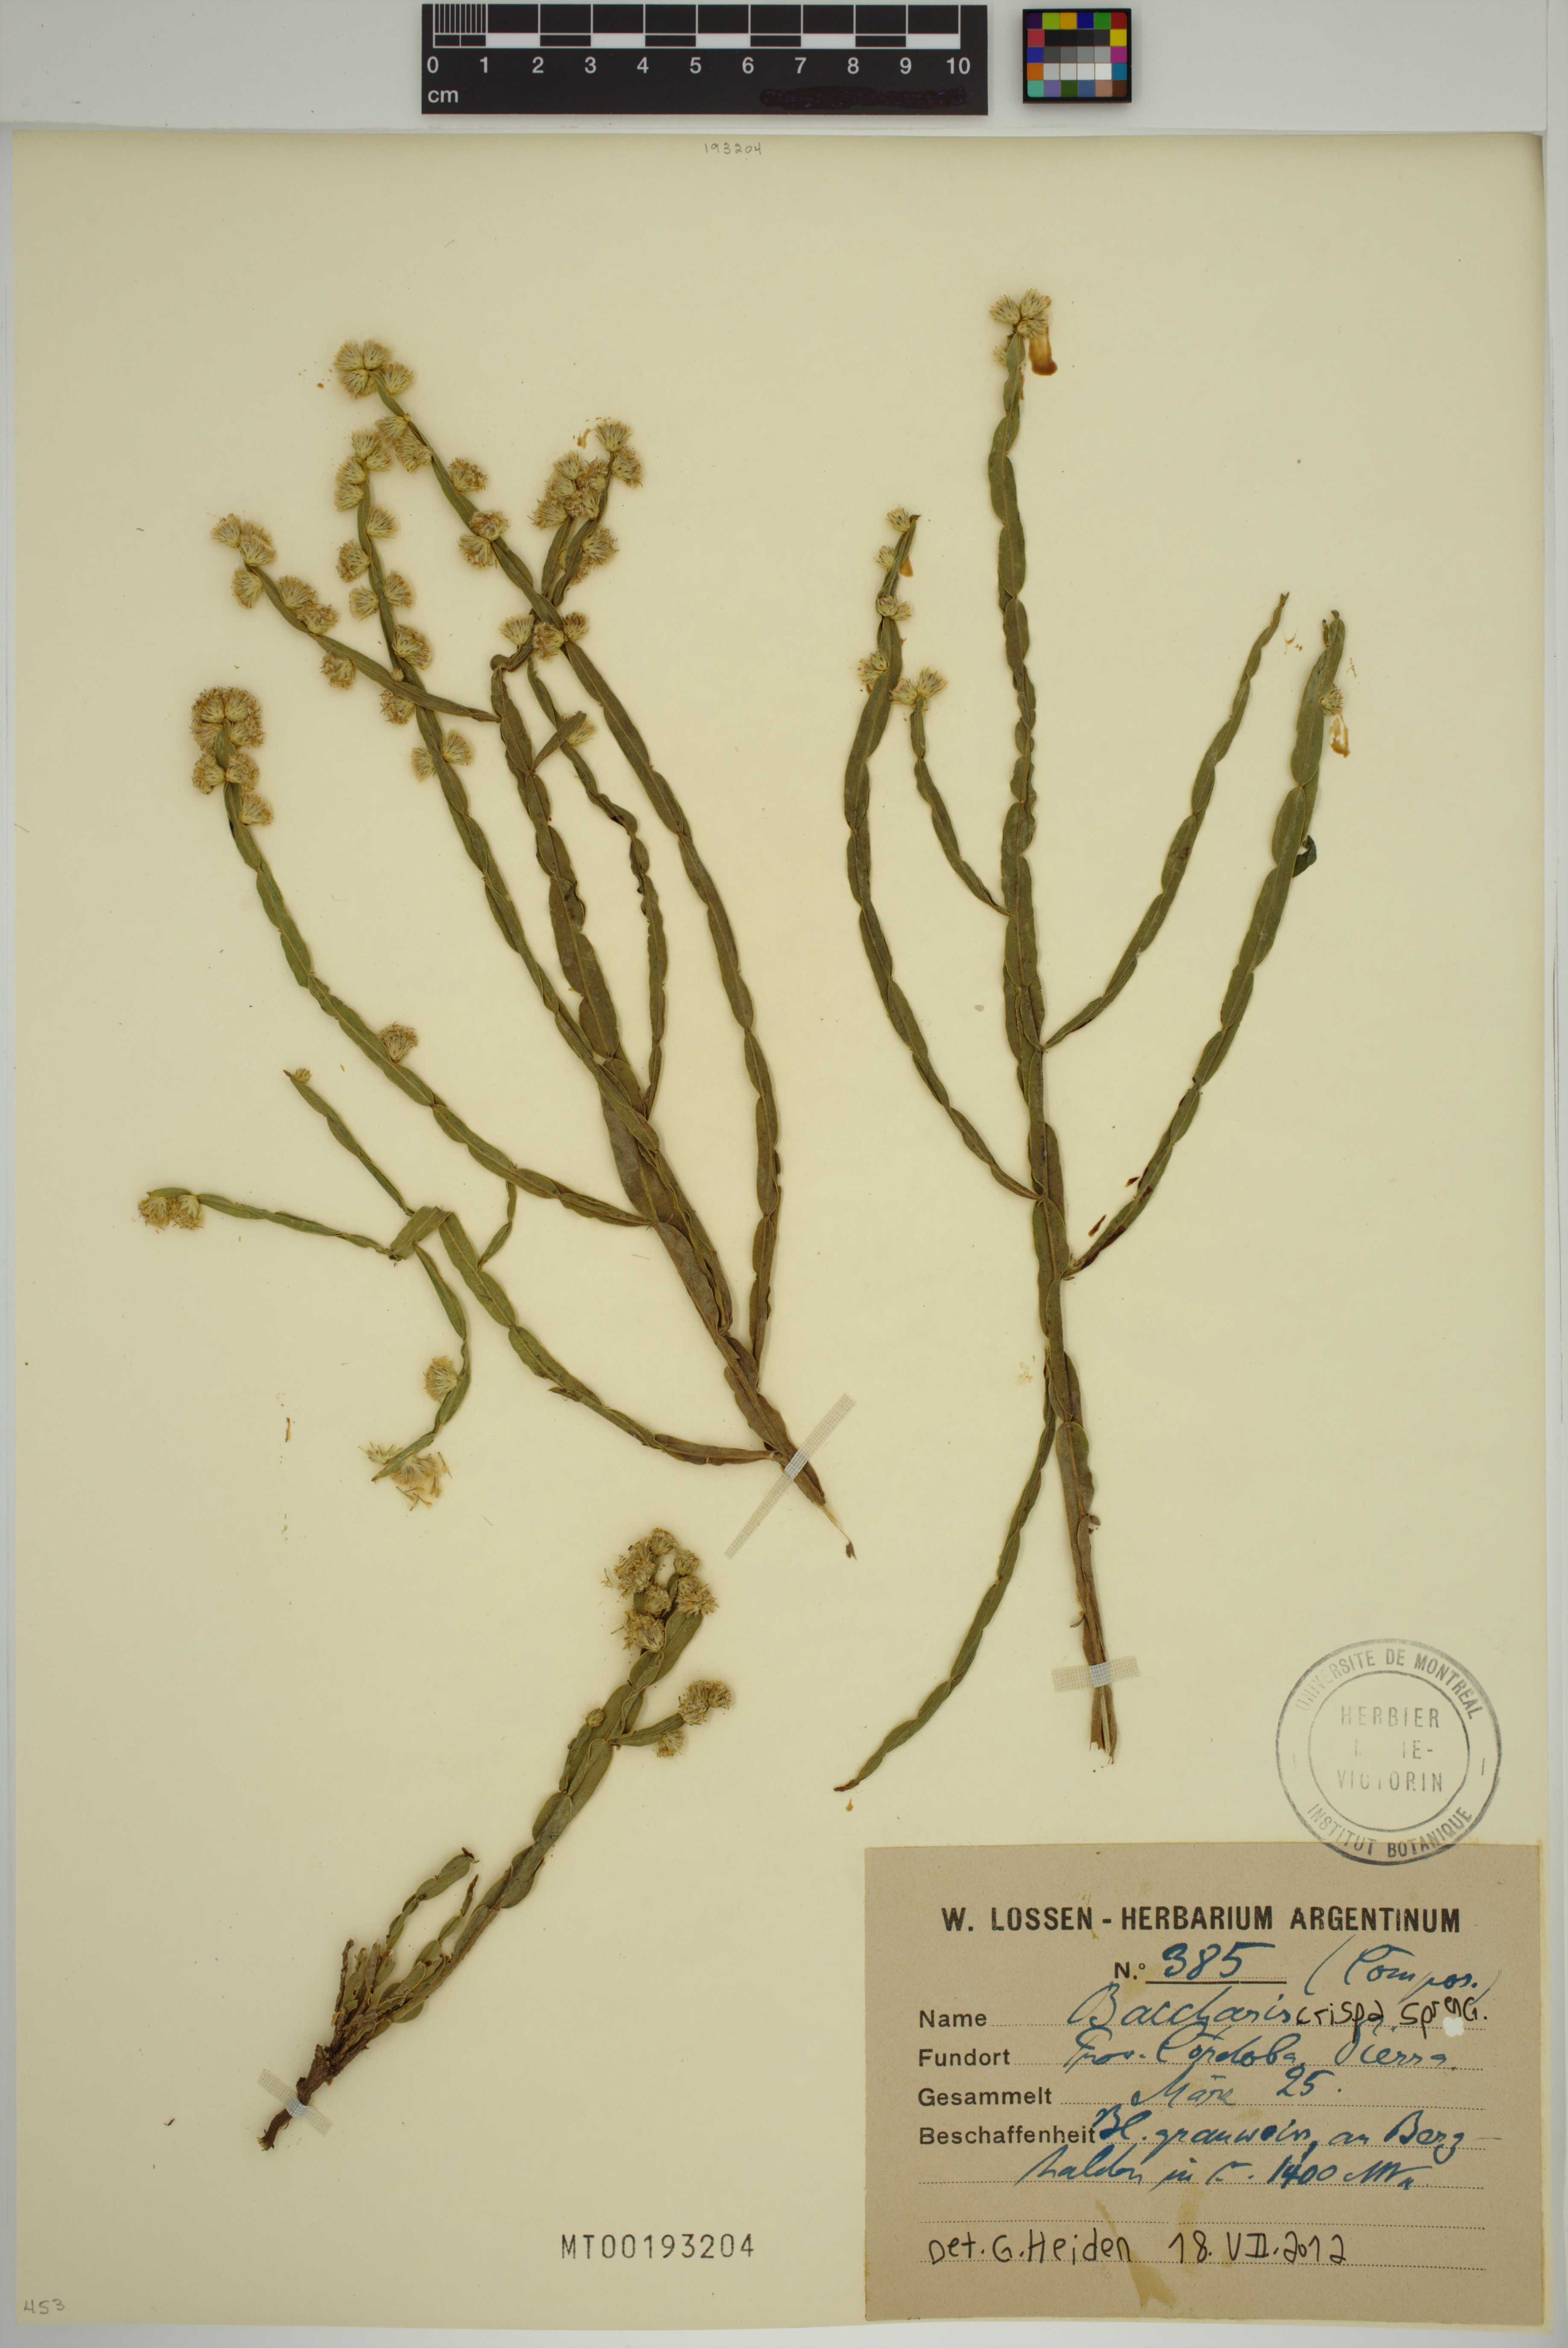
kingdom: Plantae
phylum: Tracheophyta
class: Magnoliopsida
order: Asterales
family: Asteraceae
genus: Baccharis
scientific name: Baccharis crispa
